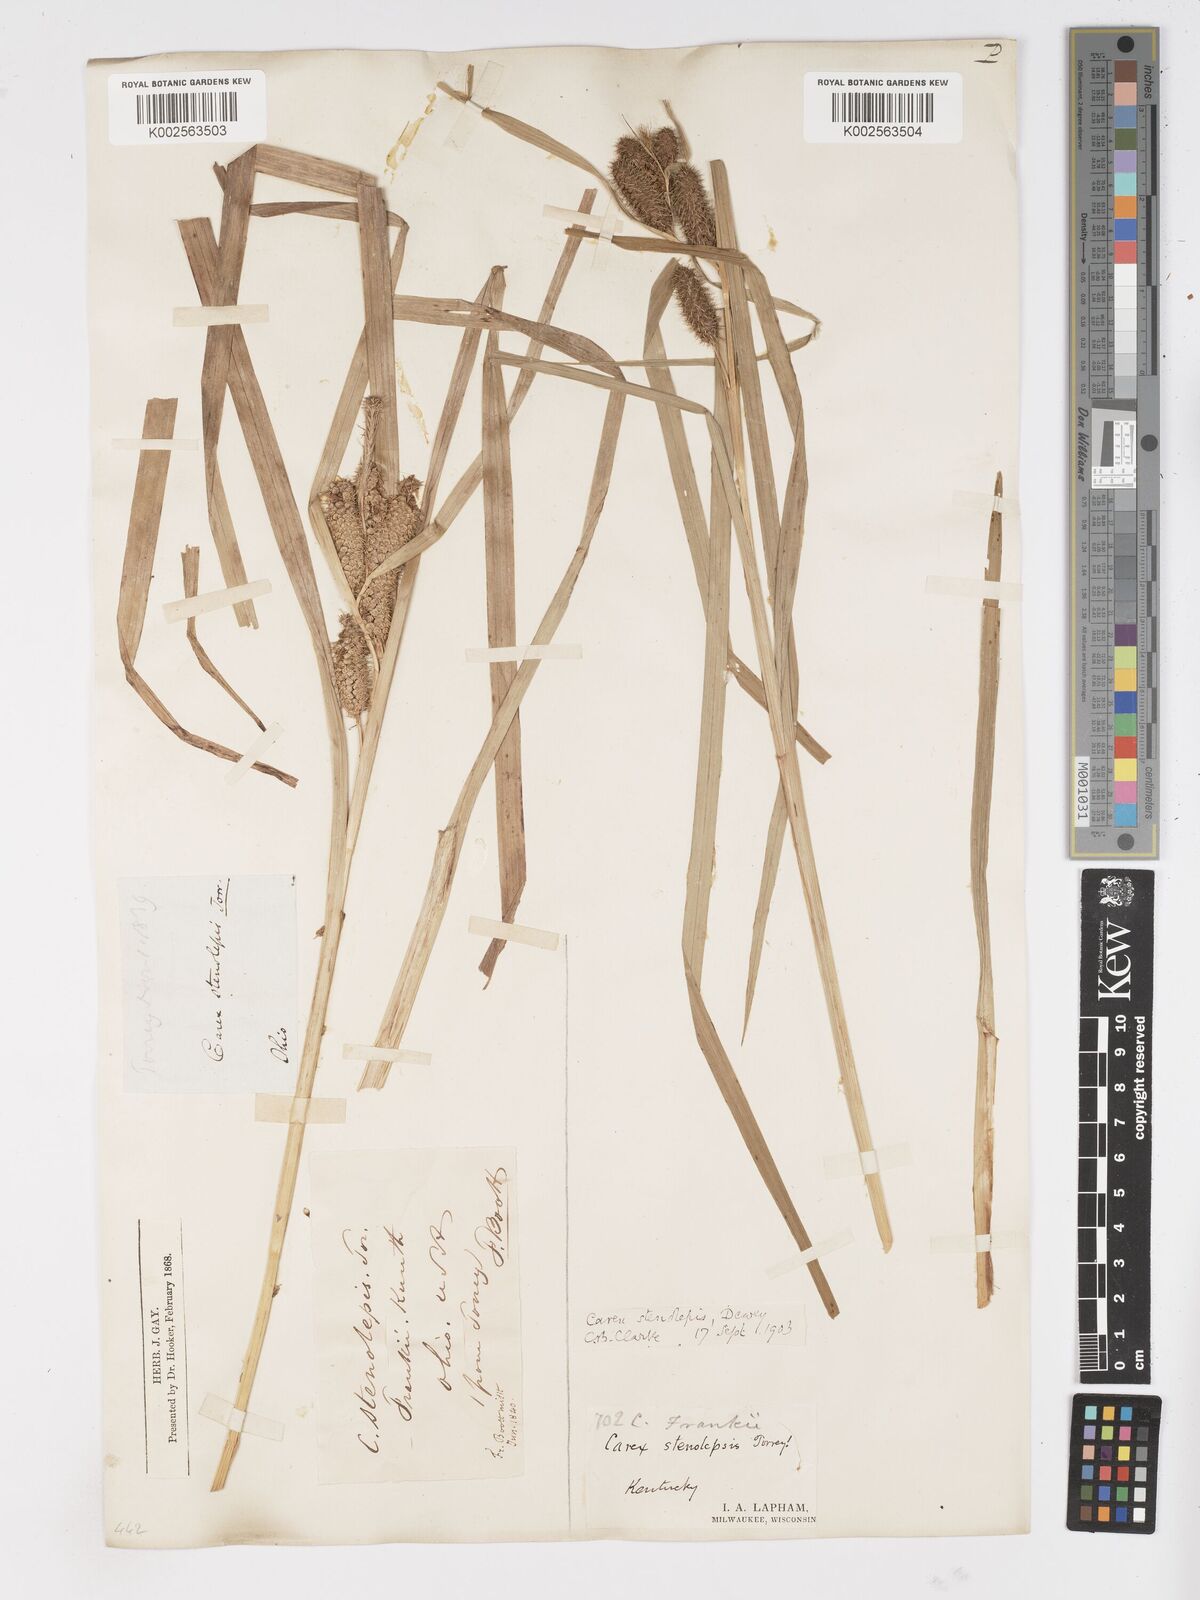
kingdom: Plantae
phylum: Tracheophyta
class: Liliopsida
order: Poales
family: Cyperaceae
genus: Carex
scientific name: Carex frankii
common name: Frank's sedge
